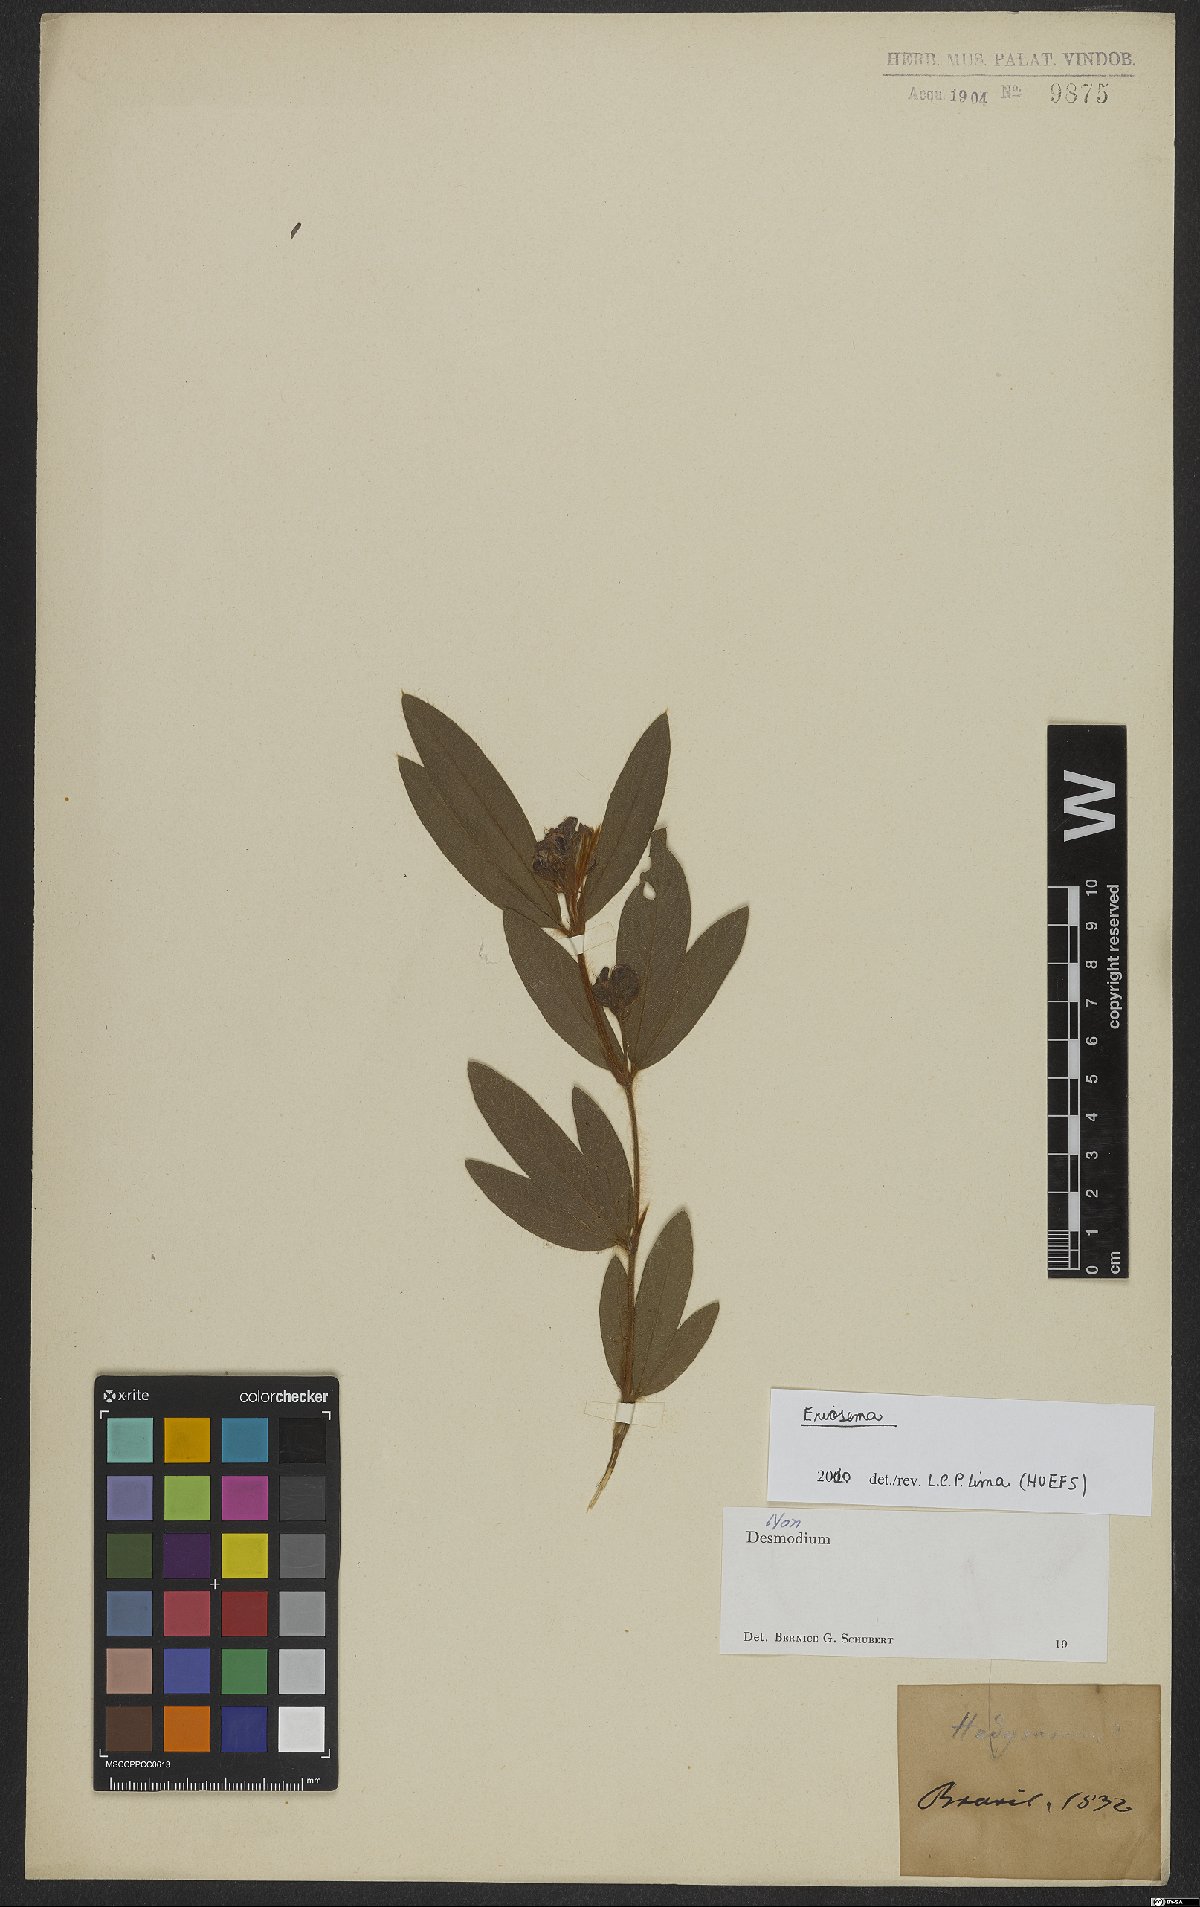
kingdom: Plantae
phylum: Tracheophyta
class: Magnoliopsida
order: Fabales
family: Fabaceae
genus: Eriosema
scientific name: Eriosema crinitum
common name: Sand pea
